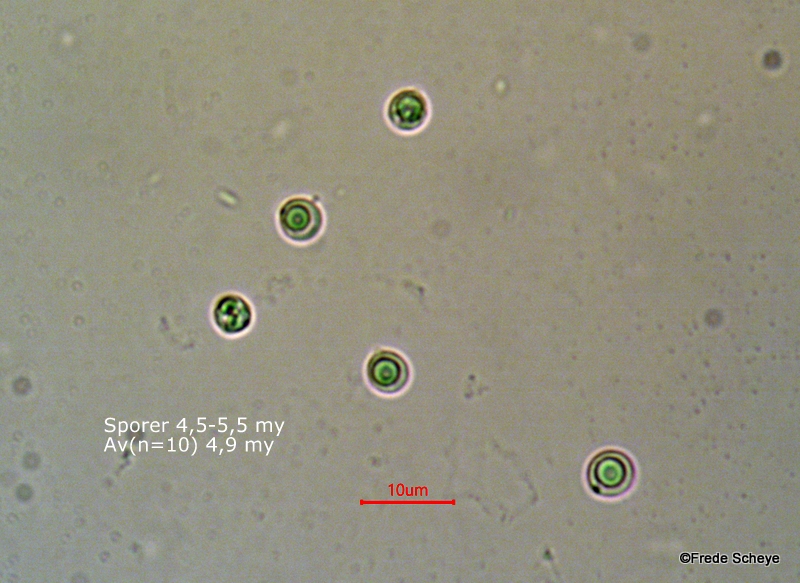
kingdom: Fungi
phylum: Basidiomycota
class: Agaricomycetes
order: Agaricales
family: Pleurotaceae
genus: Resupinatus
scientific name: Resupinatus trichotis
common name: mørkfiltet barkhat
